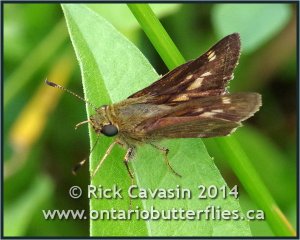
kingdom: Animalia
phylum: Arthropoda
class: Insecta
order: Lepidoptera
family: Hesperiidae
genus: Vernia
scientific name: Vernia verna
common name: Little Glassywing
